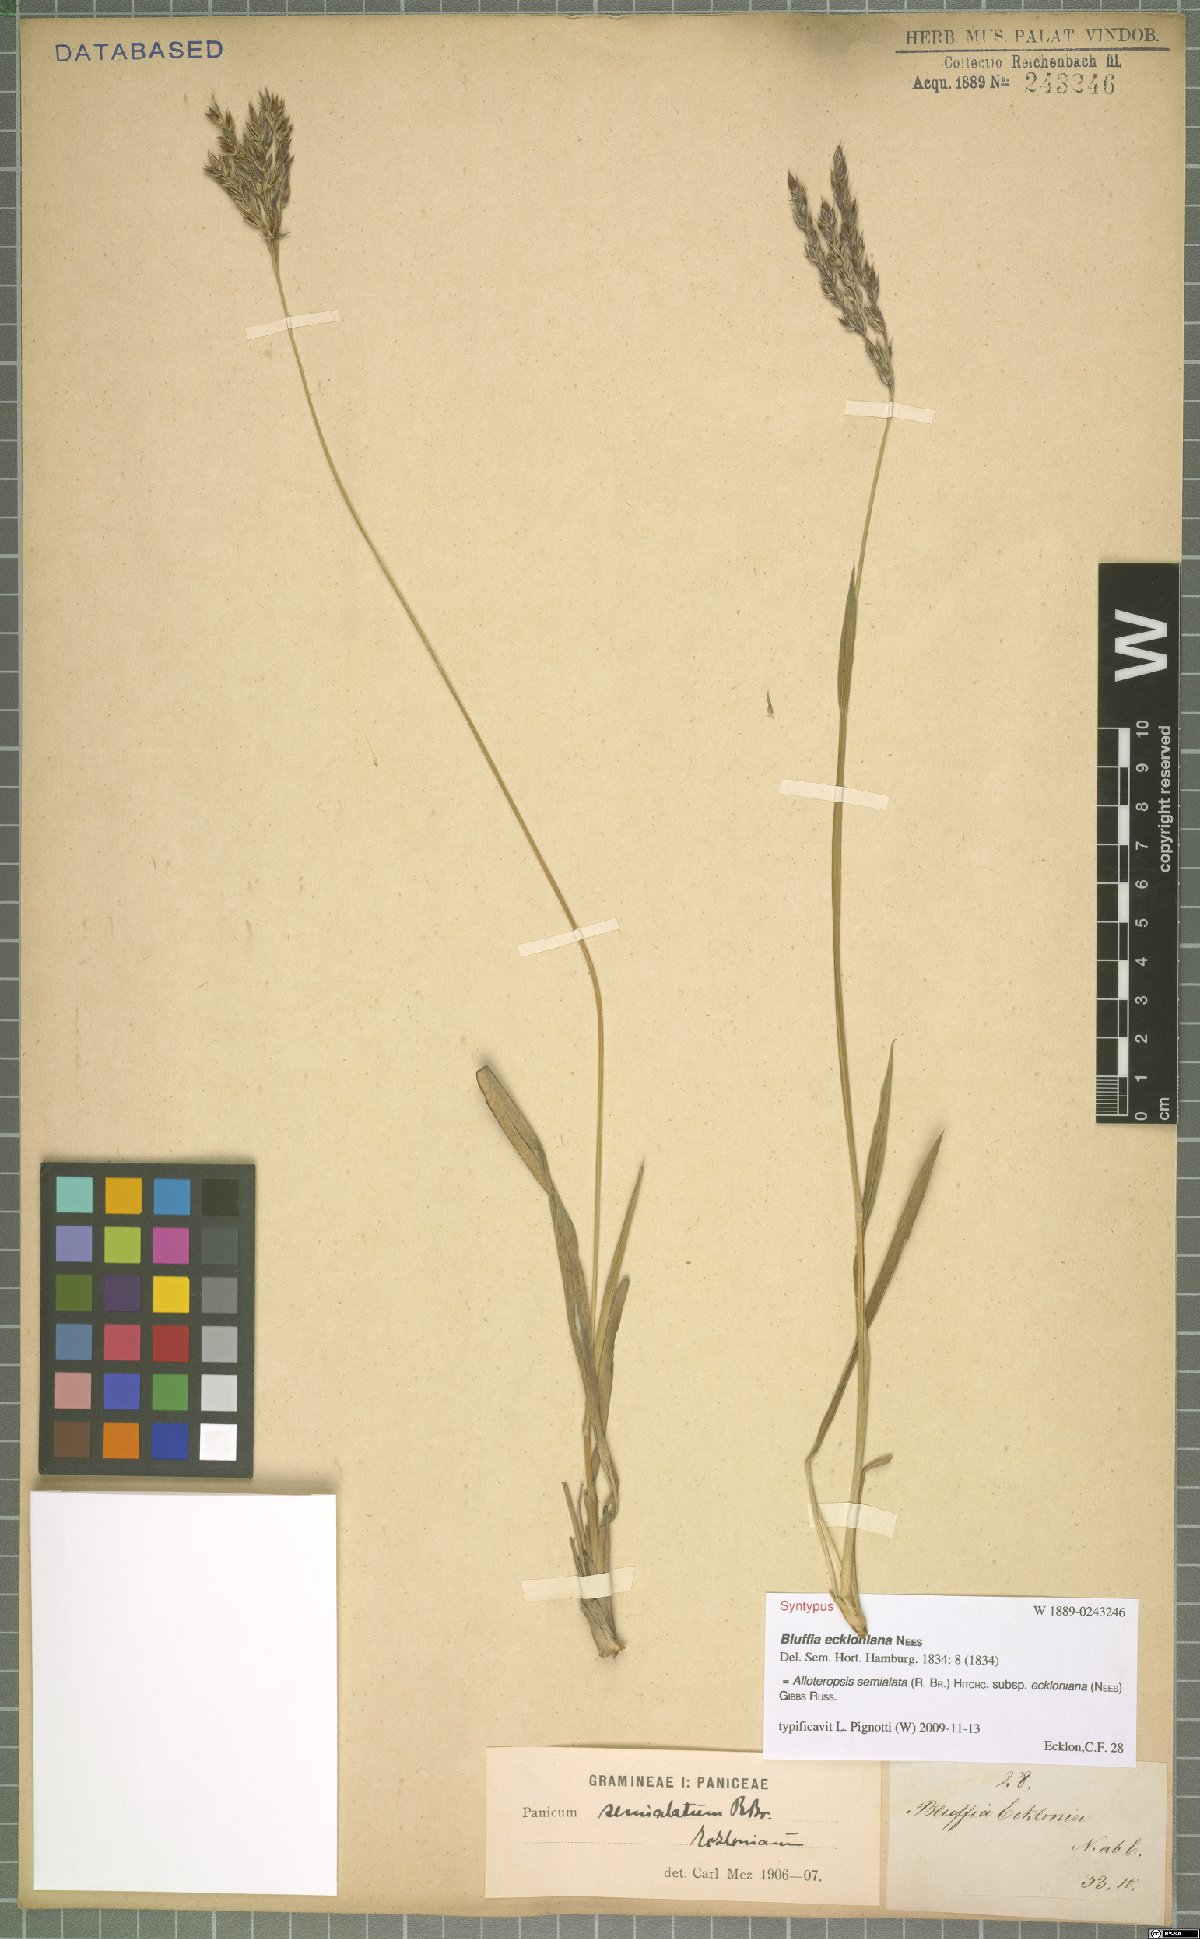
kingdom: Plantae
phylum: Tracheophyta
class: Liliopsida
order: Poales
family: Poaceae
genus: Alloteropsis
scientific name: Alloteropsis semialata
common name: Cockatoo grass
